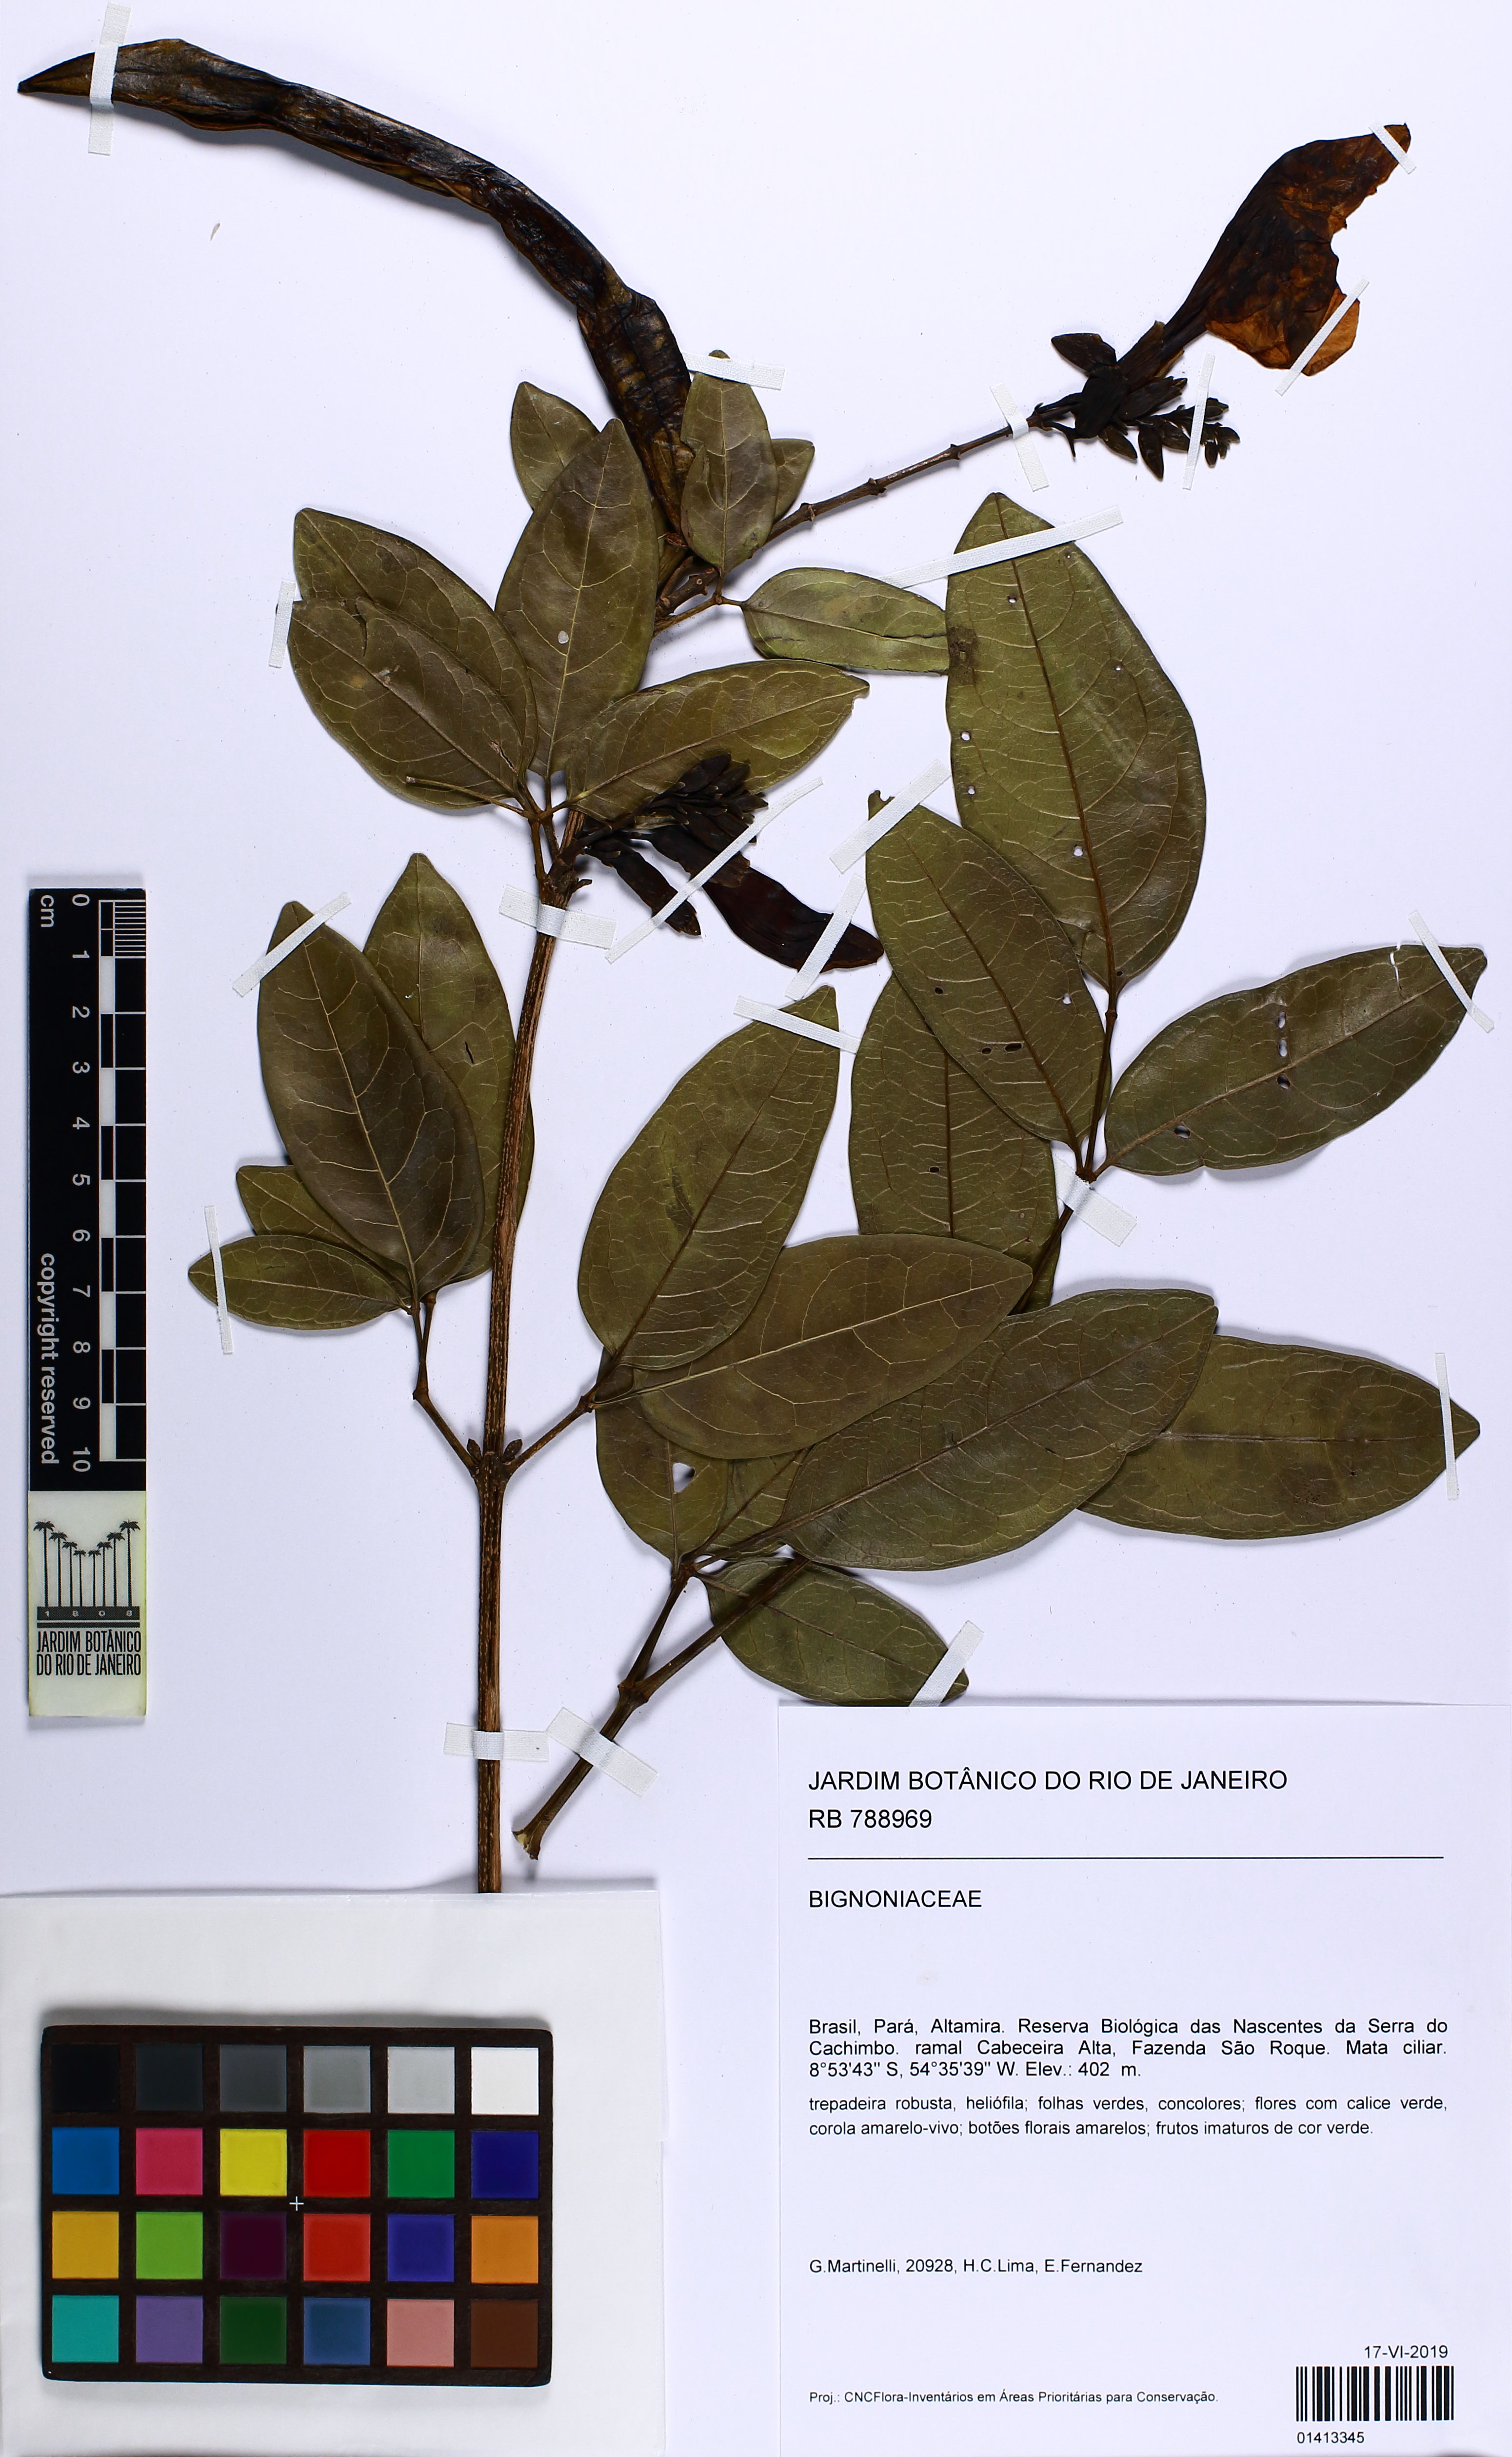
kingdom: Plantae
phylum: Tracheophyta
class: Magnoliopsida
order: Lamiales
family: Bignoniaceae
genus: Adenocalymma
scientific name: Adenocalymma
